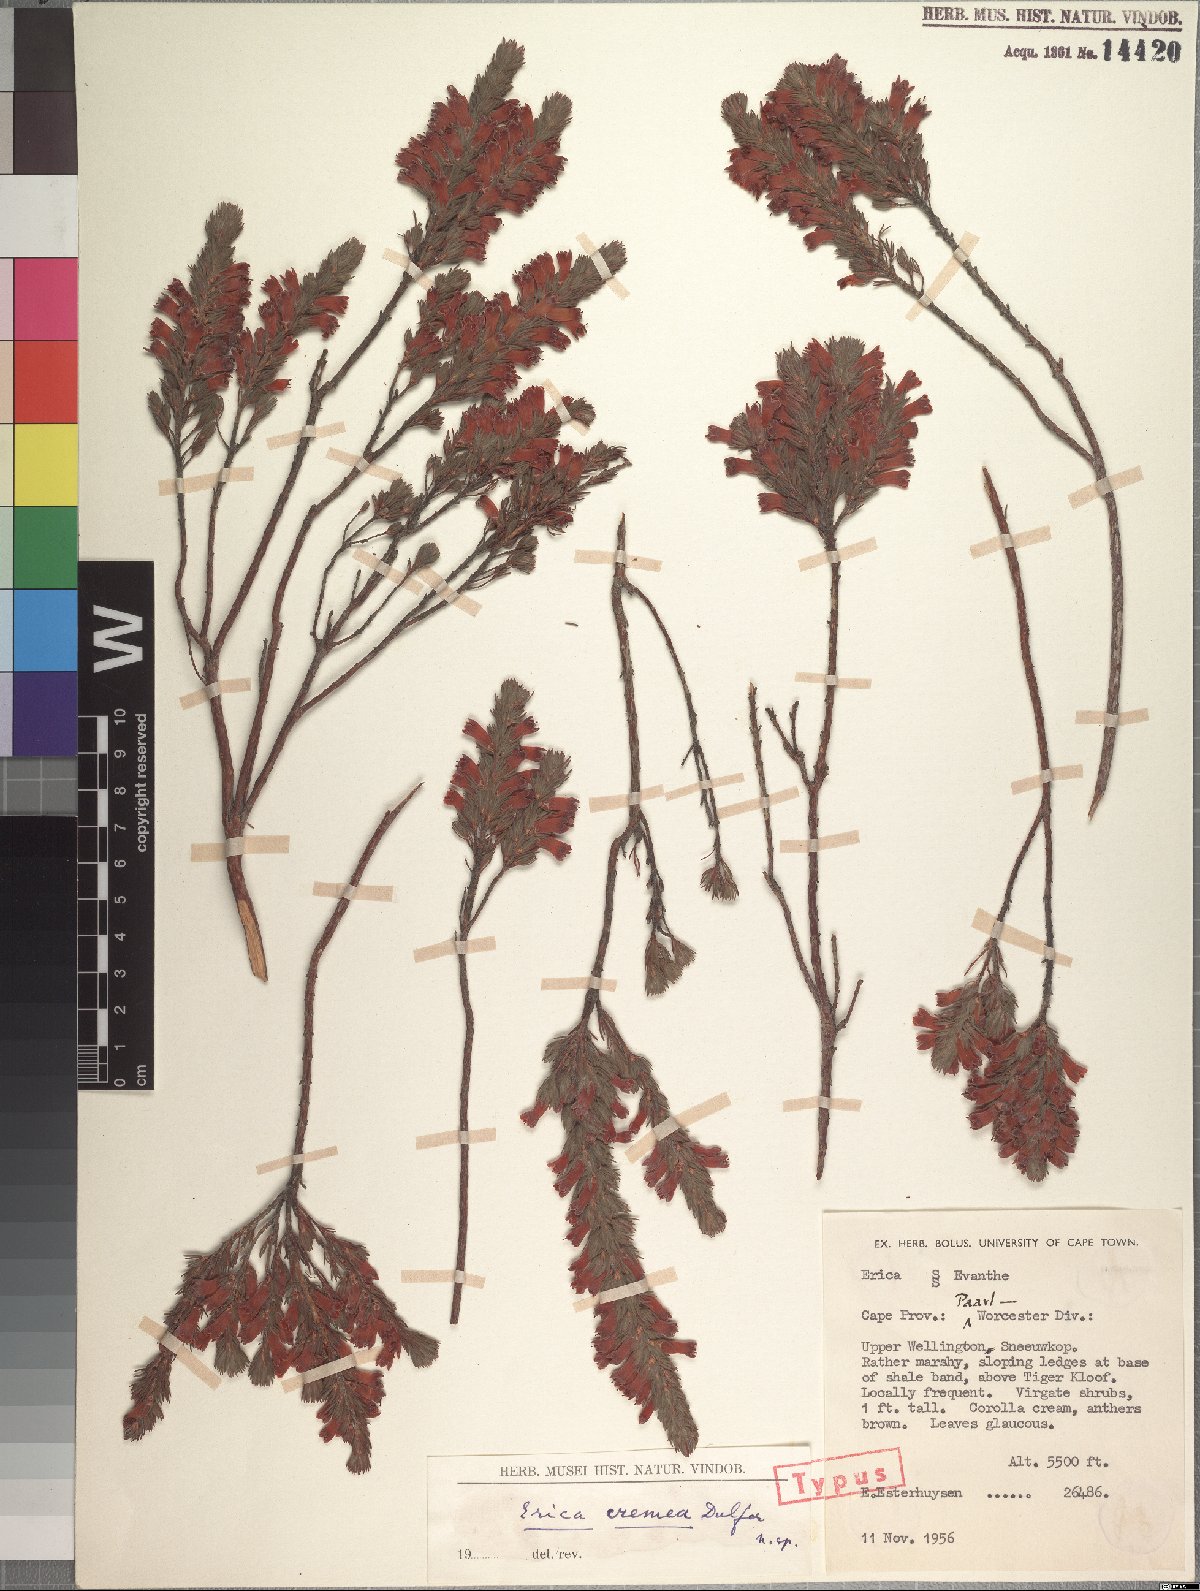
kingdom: Plantae
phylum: Tracheophyta
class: Magnoliopsida
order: Ericales
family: Ericaceae
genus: Erica
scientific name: Erica cremea
